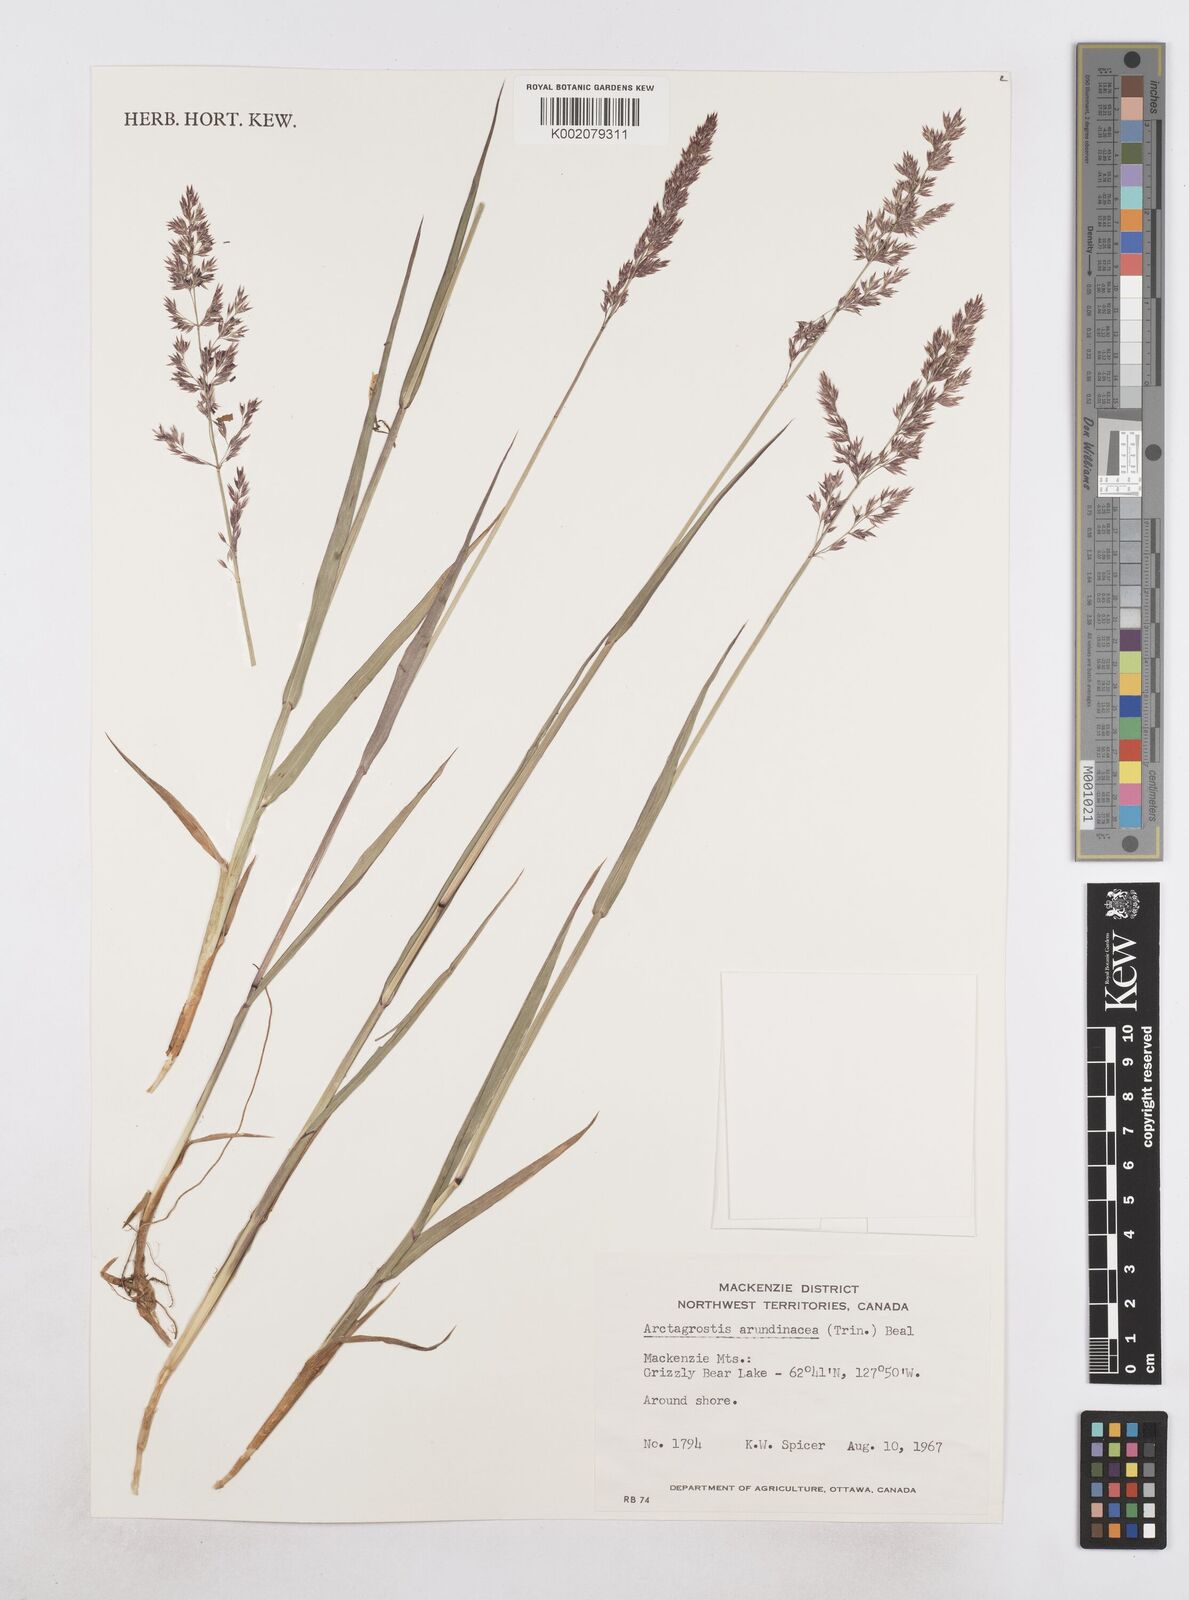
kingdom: Plantae
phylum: Tracheophyta
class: Liliopsida
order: Poales
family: Poaceae
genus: Arctagrostis
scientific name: Arctagrostis arundinacea
